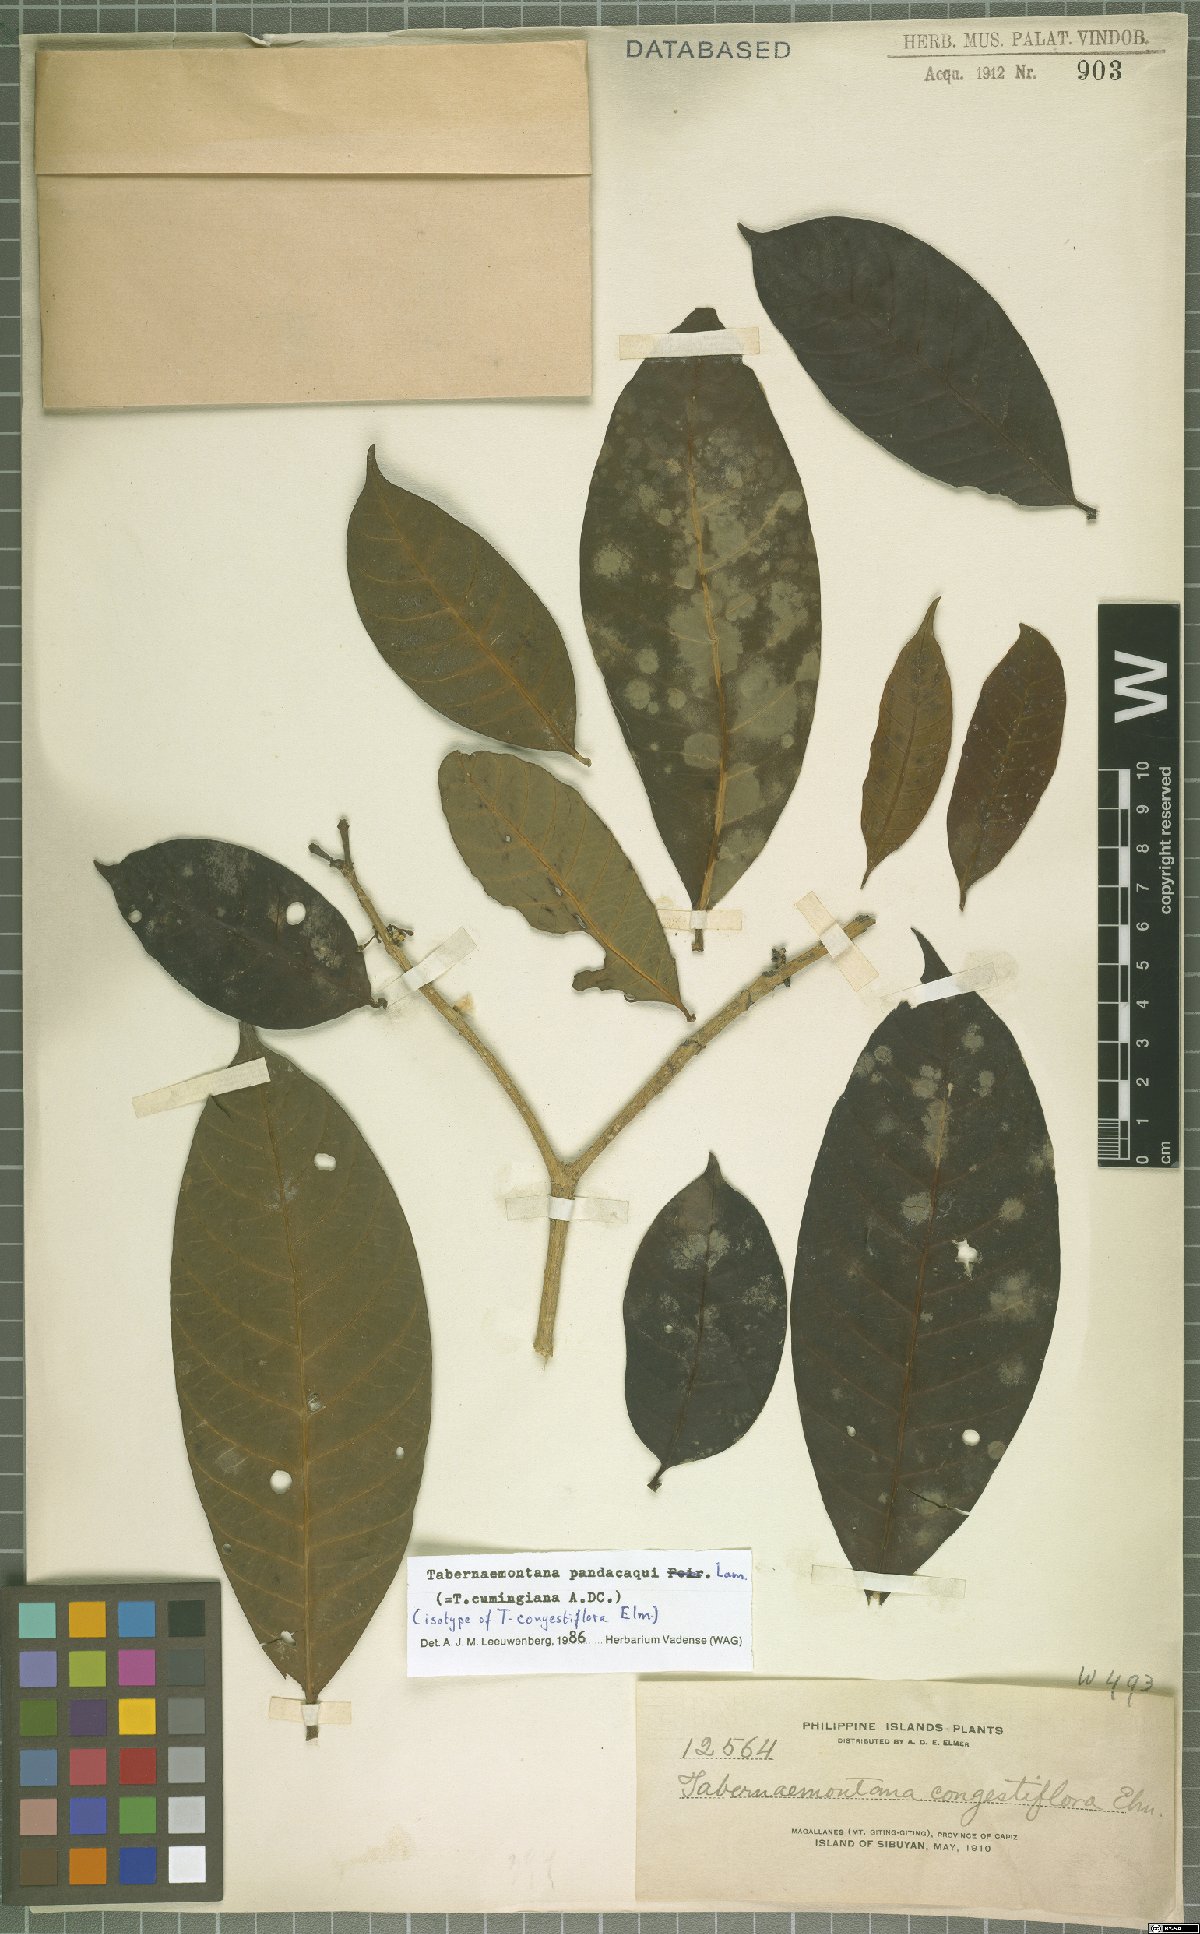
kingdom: Plantae
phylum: Tracheophyta
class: Magnoliopsida
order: Gentianales
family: Apocynaceae
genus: Tabernaemontana
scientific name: Tabernaemontana pandacaqui
